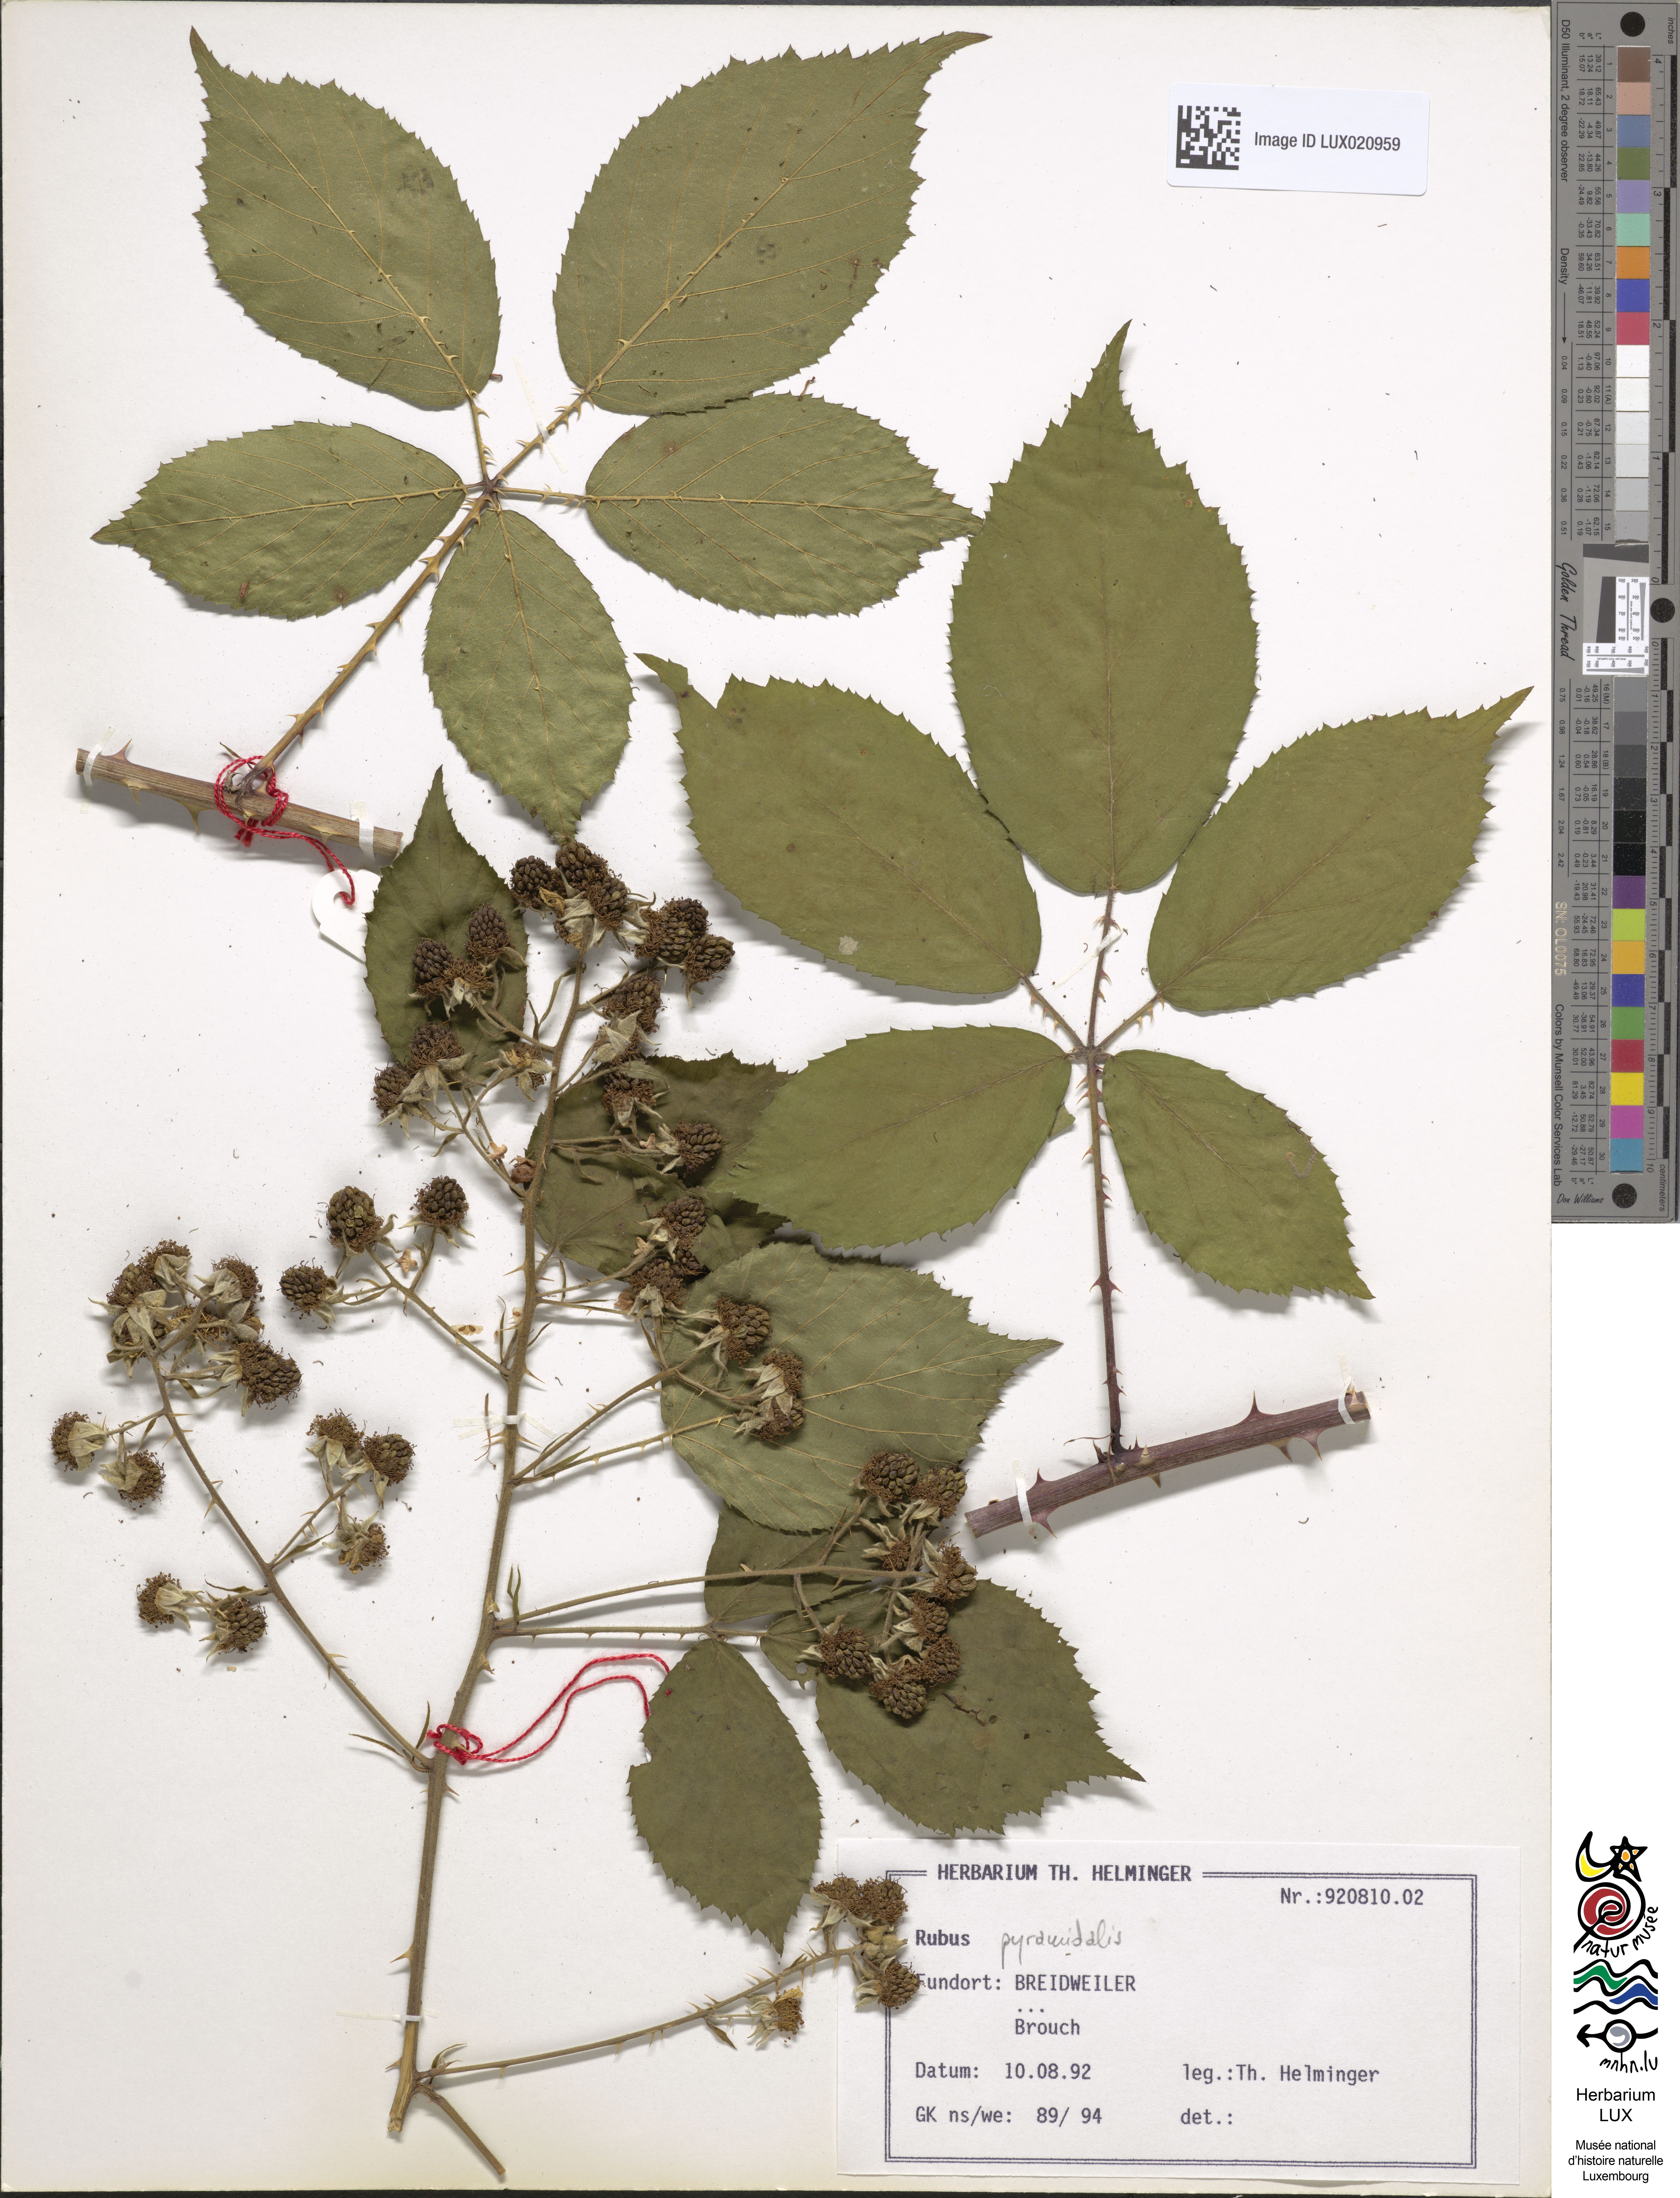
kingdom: Plantae
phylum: Tracheophyta
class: Magnoliopsida
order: Rosales
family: Rosaceae
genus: Rubus
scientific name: Rubus umbrosus
